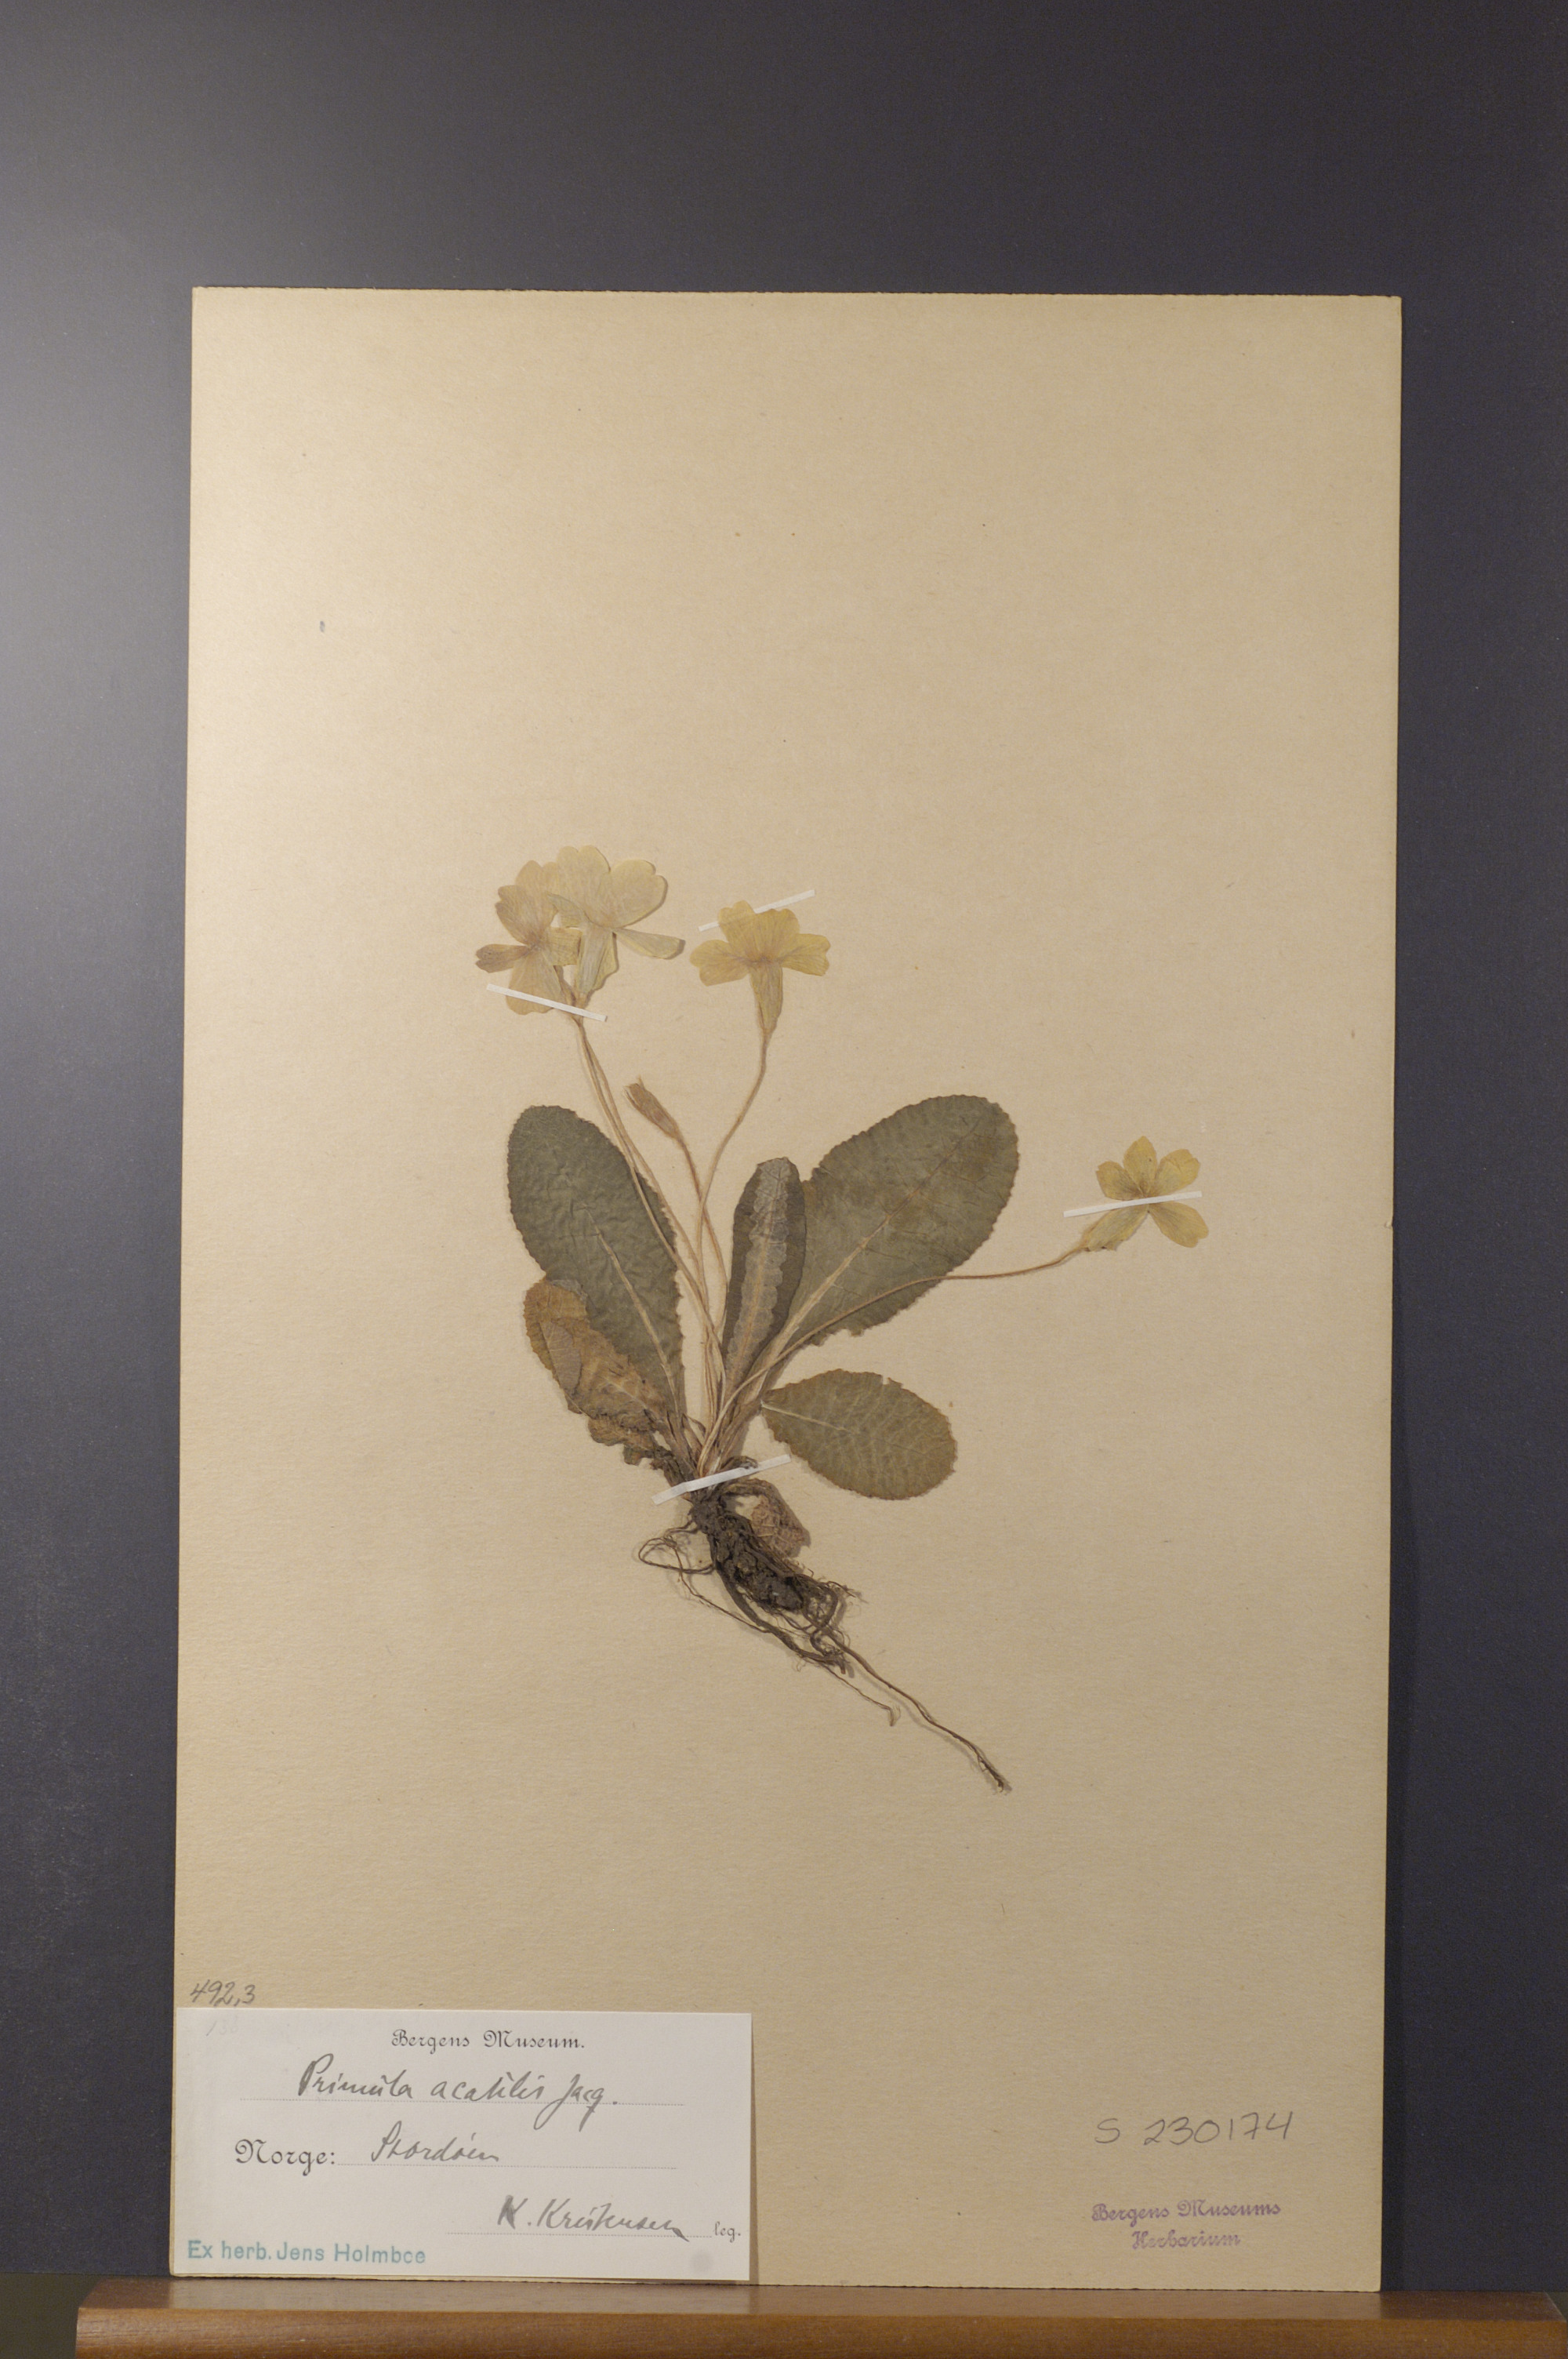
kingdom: Plantae
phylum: Tracheophyta
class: Magnoliopsida
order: Ericales
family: Primulaceae
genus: Primula
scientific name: Primula vulgaris
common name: Primrose
